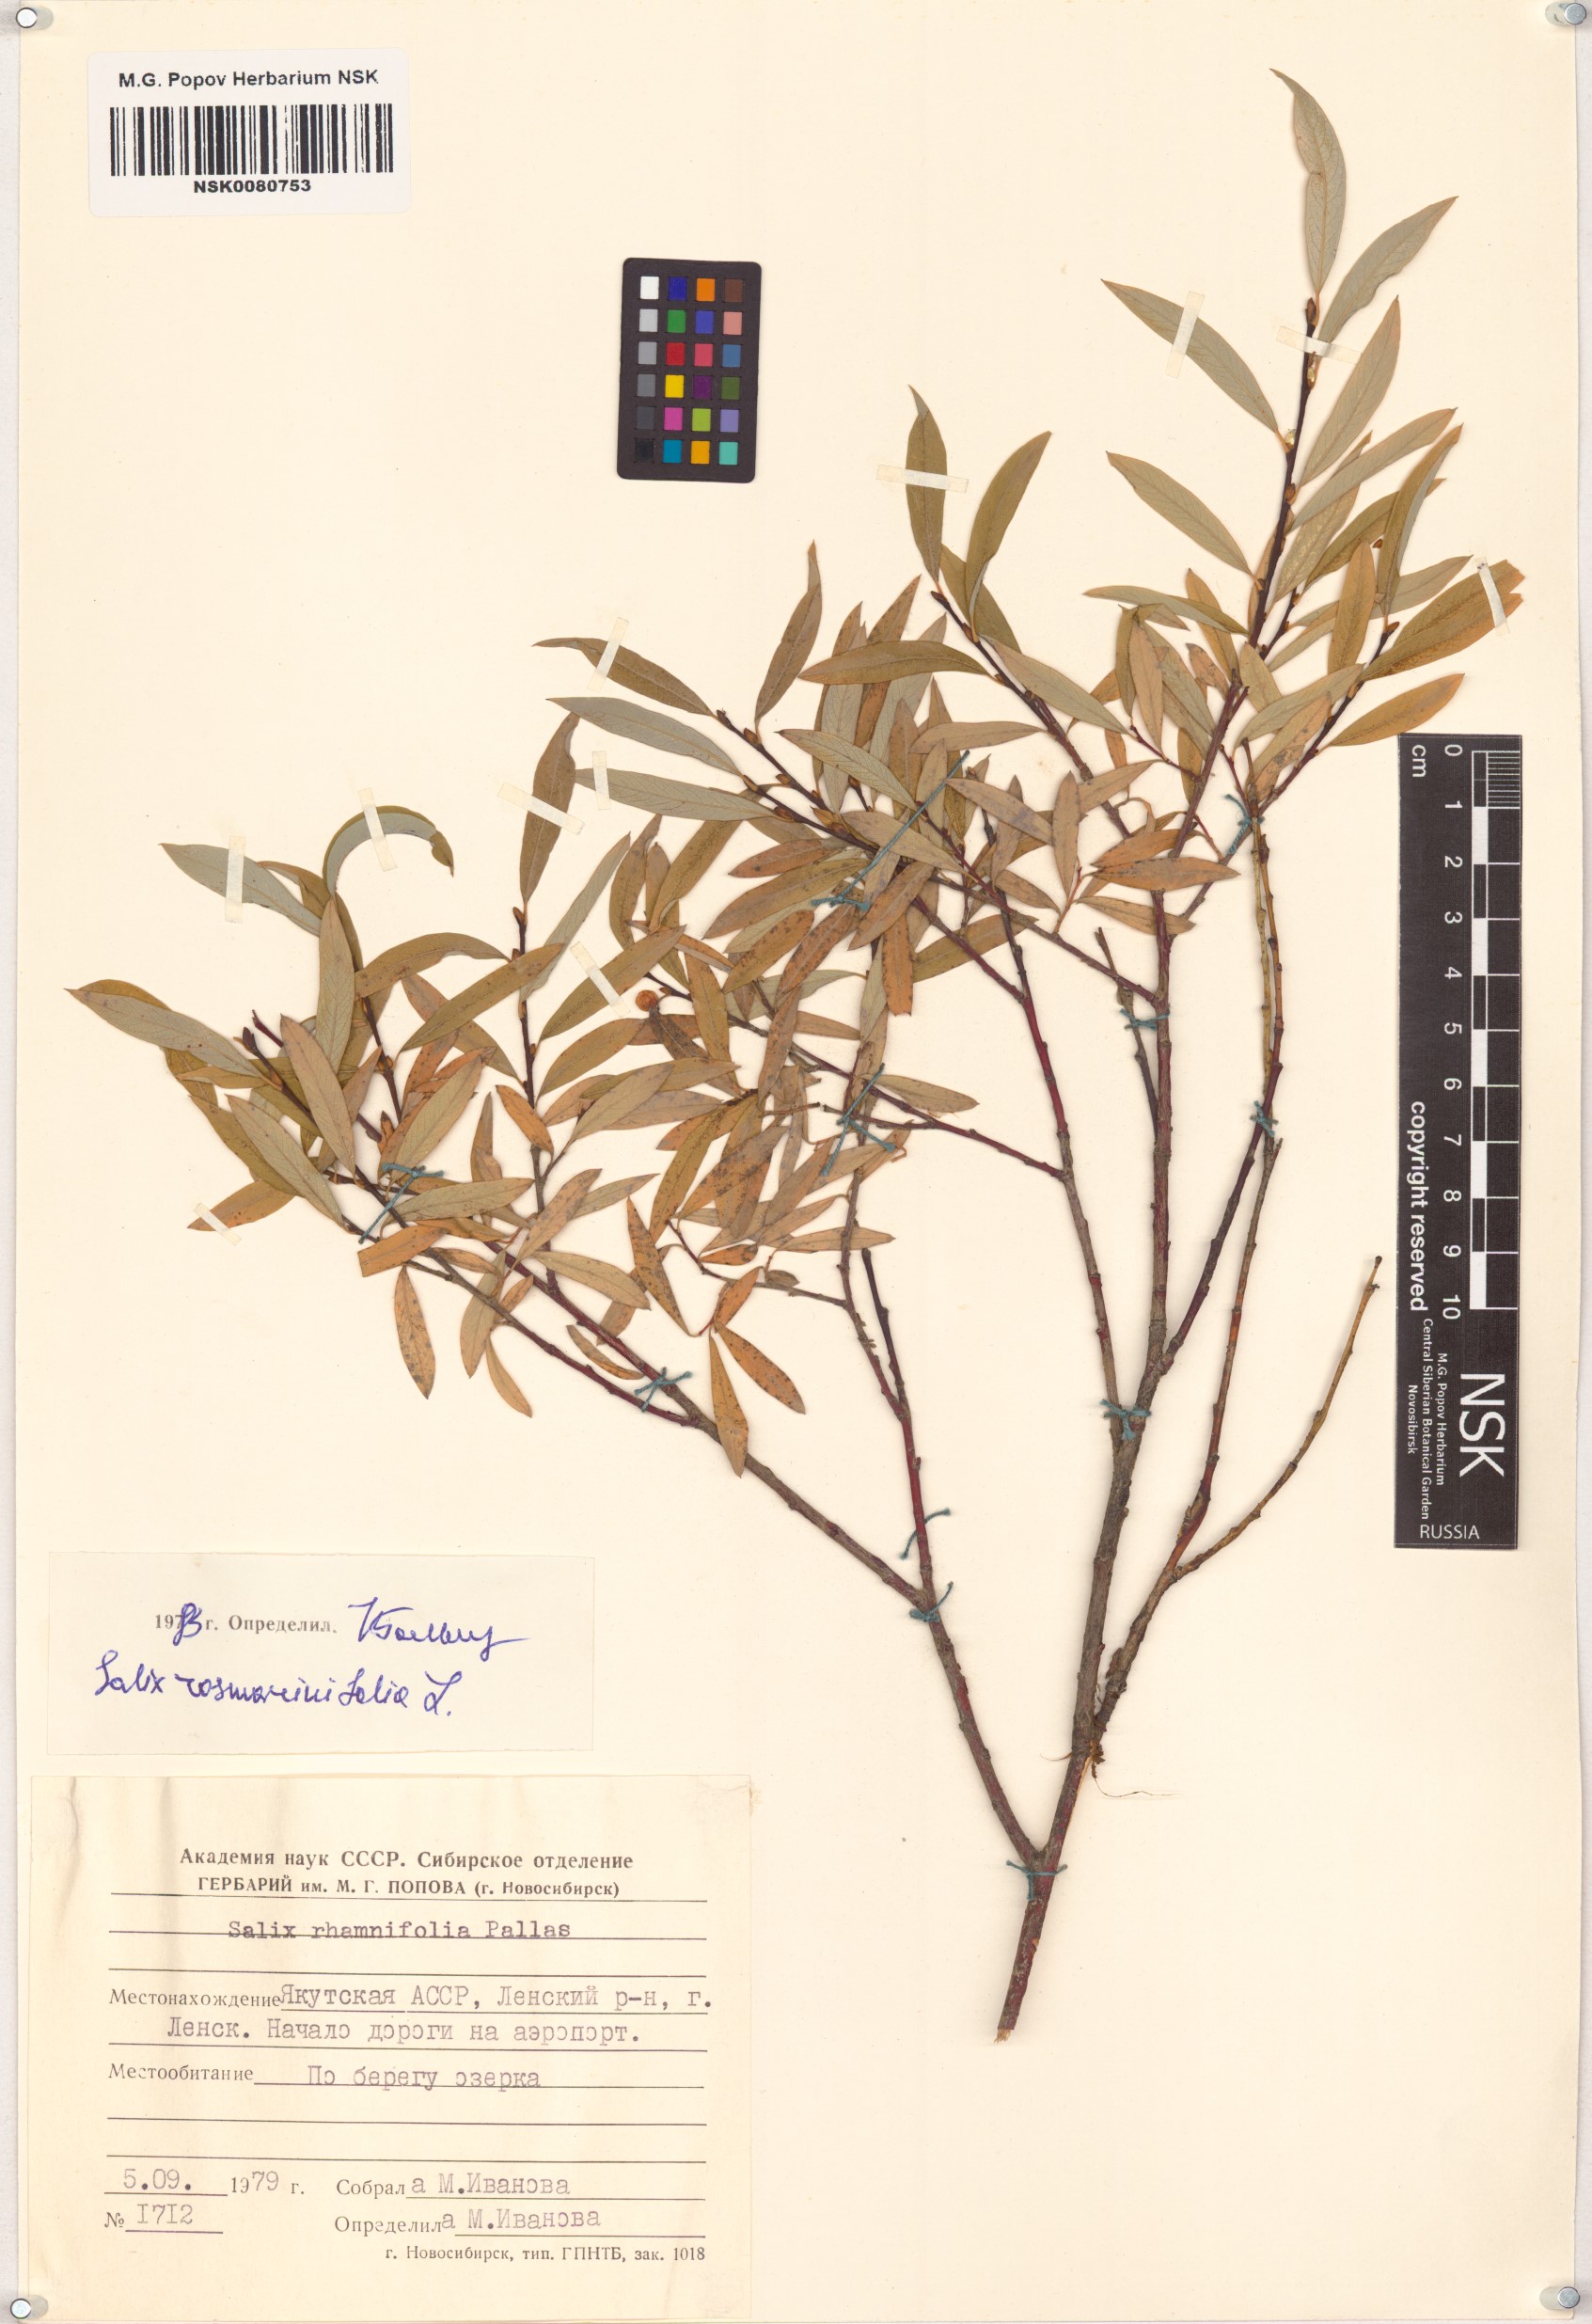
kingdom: Plantae
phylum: Tracheophyta
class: Magnoliopsida
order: Malpighiales
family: Salicaceae
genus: Salix
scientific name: Salix rosmarinifolia
